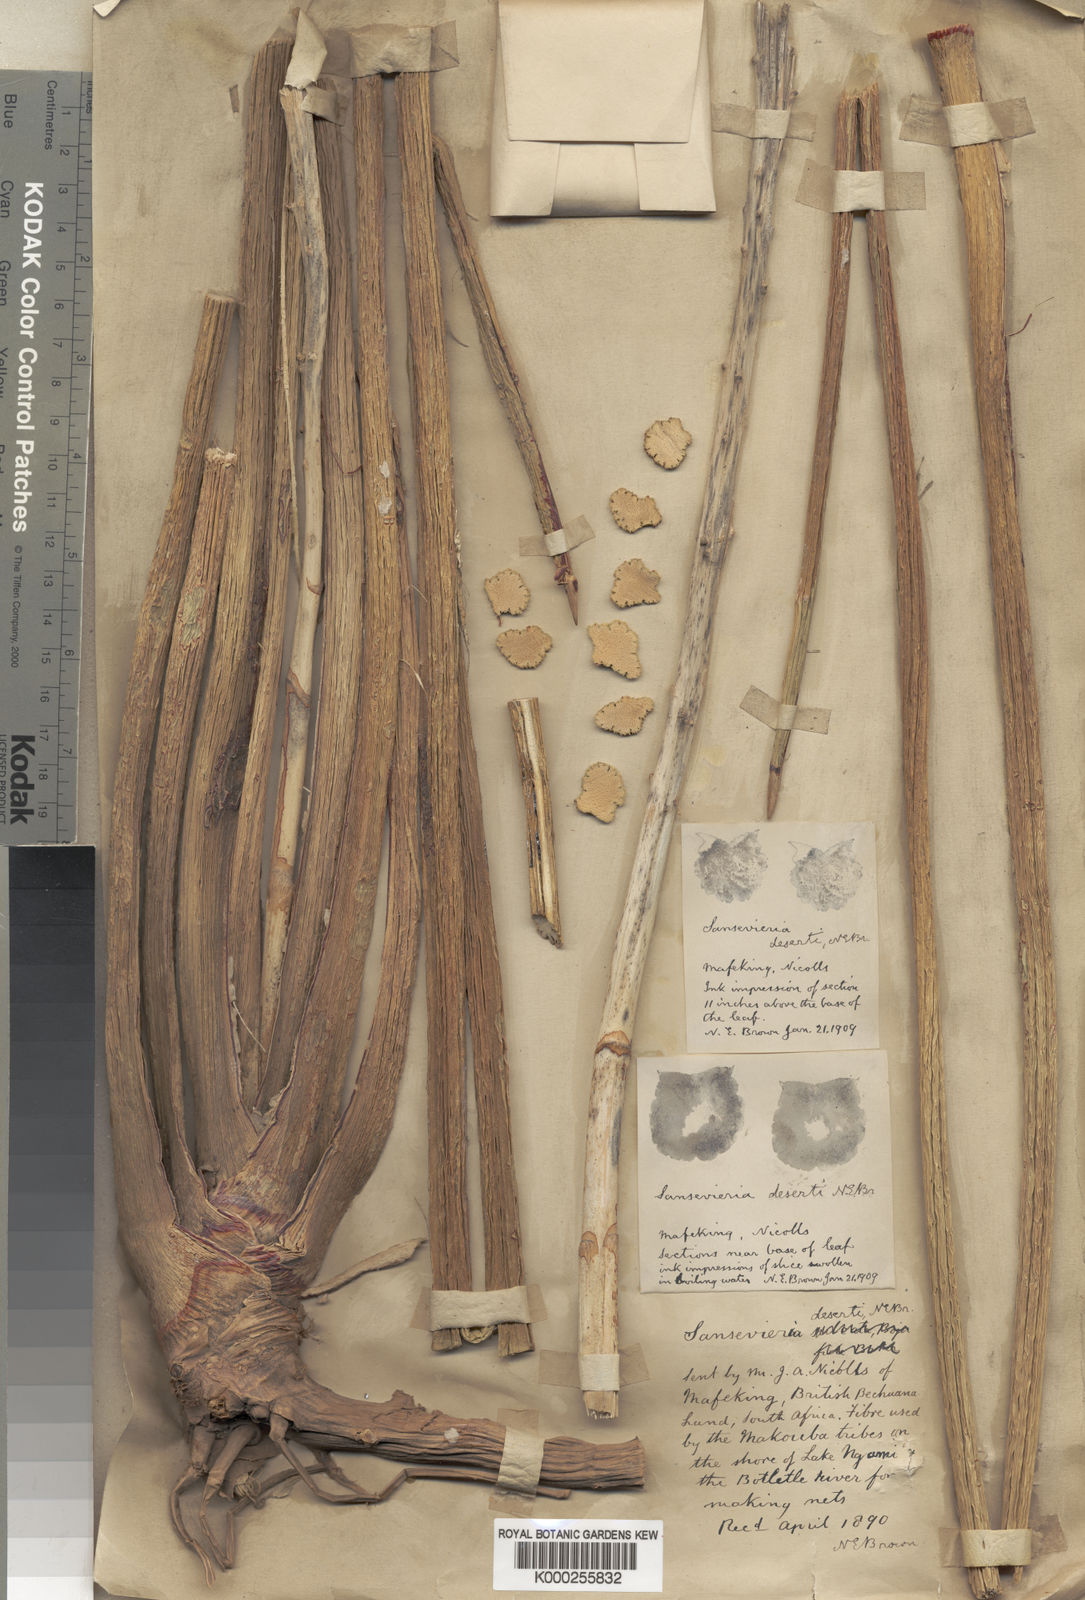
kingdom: Plantae
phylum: Tracheophyta
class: Liliopsida
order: Asparagales
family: Asparagaceae
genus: Dracaena
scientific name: Dracaena pearsonii
